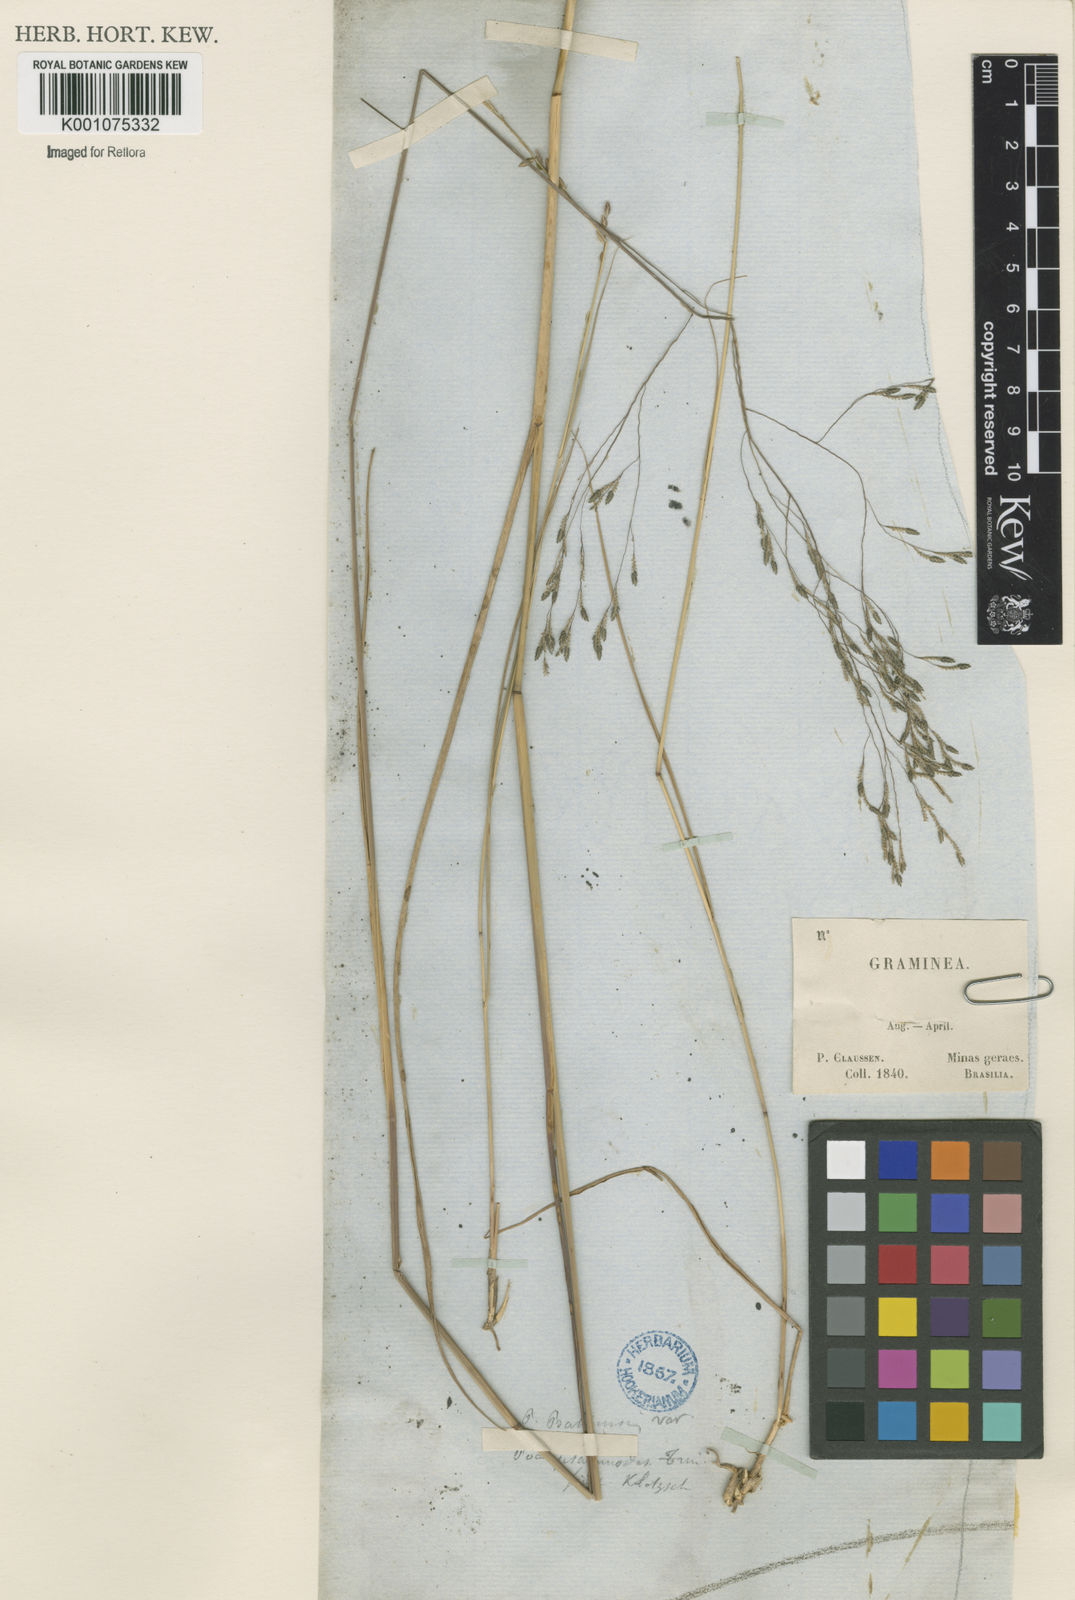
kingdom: Plantae
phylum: Tracheophyta
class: Liliopsida
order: Poales
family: Poaceae
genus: Eragrostis
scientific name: Eragrostis bahiensis
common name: Bahia lovegrass
